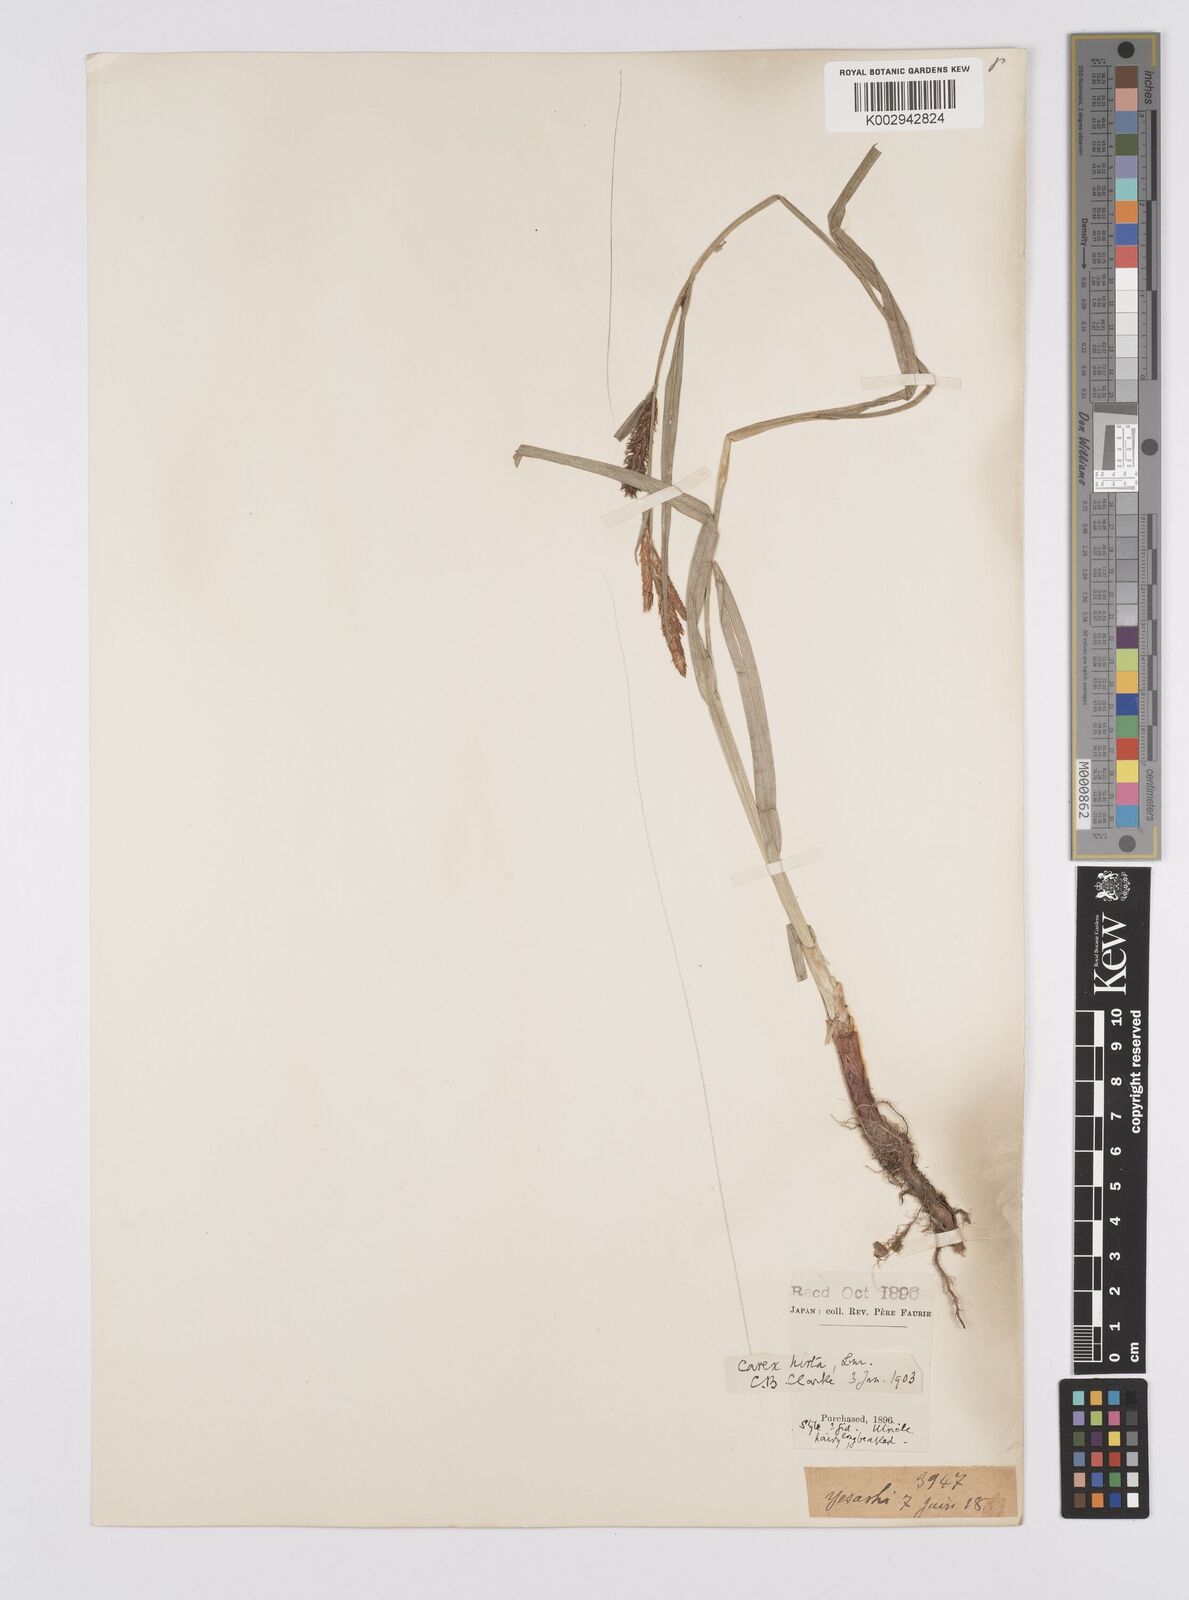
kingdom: Plantae
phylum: Tracheophyta
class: Liliopsida
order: Poales
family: Cyperaceae
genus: Carex
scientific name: Carex drymophila
